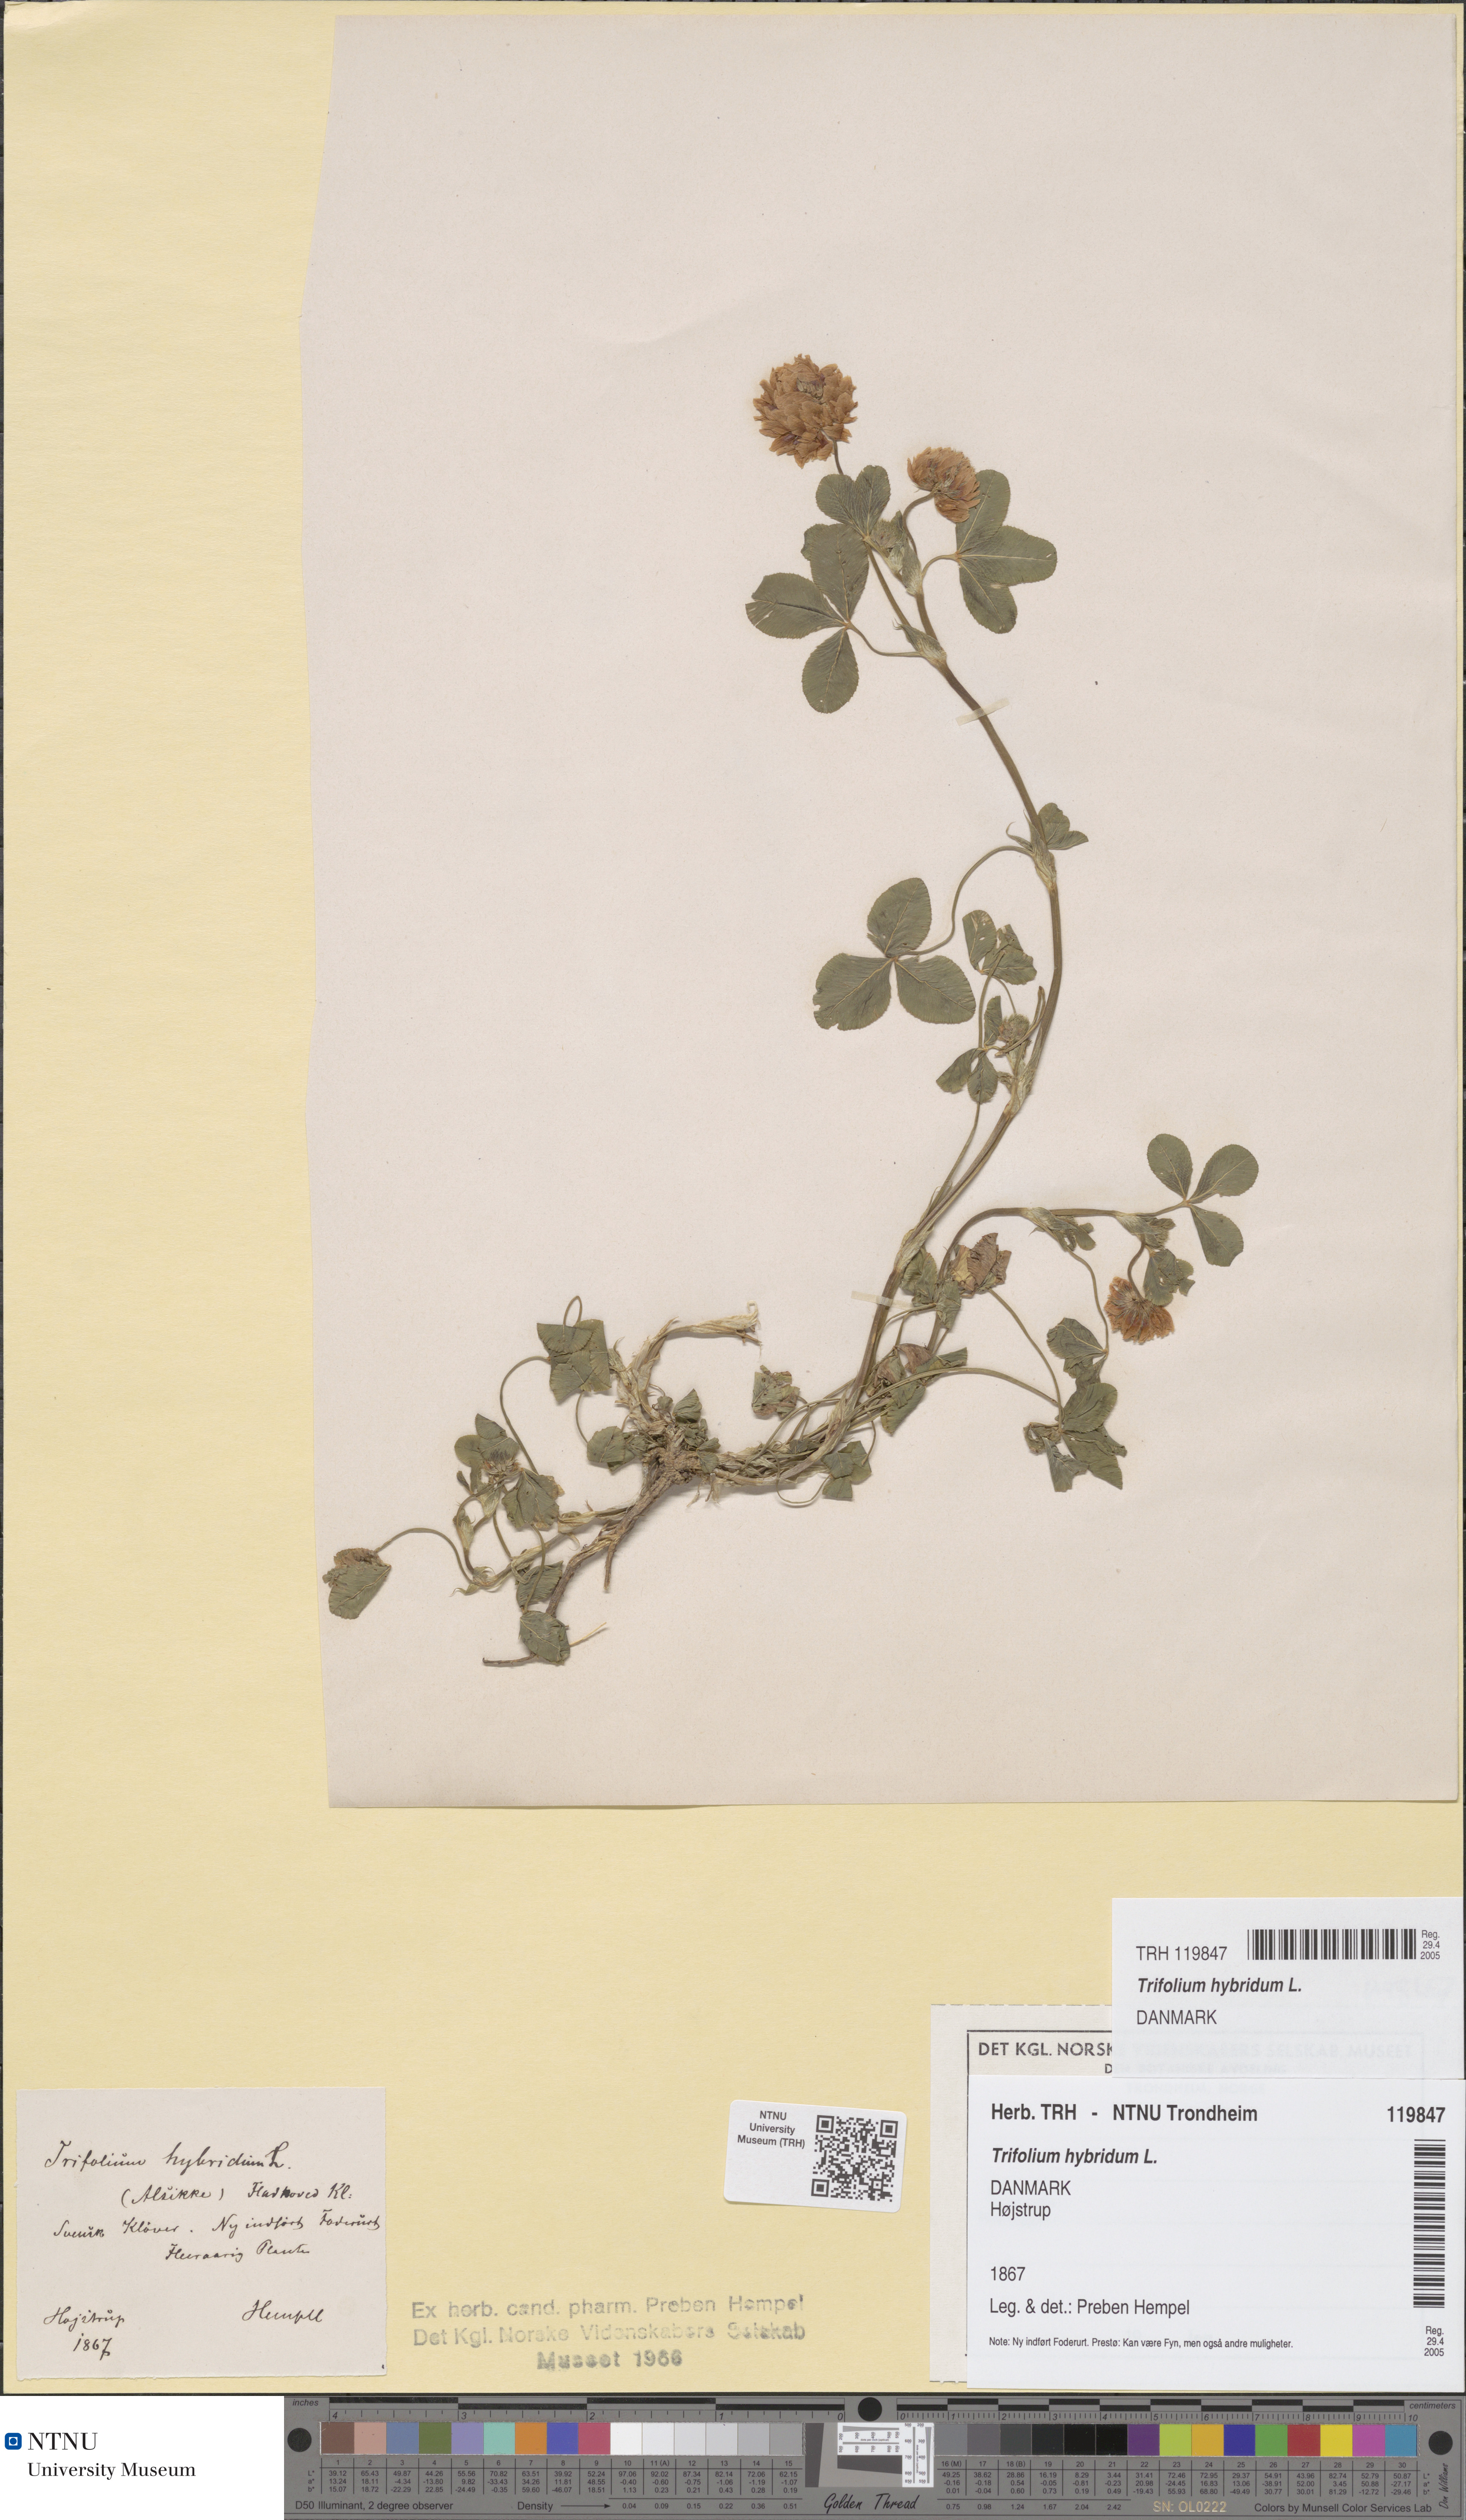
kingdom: Plantae
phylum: Tracheophyta
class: Magnoliopsida
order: Fabales
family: Fabaceae
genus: Trifolium
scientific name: Trifolium hybridum
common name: Alsike clover
